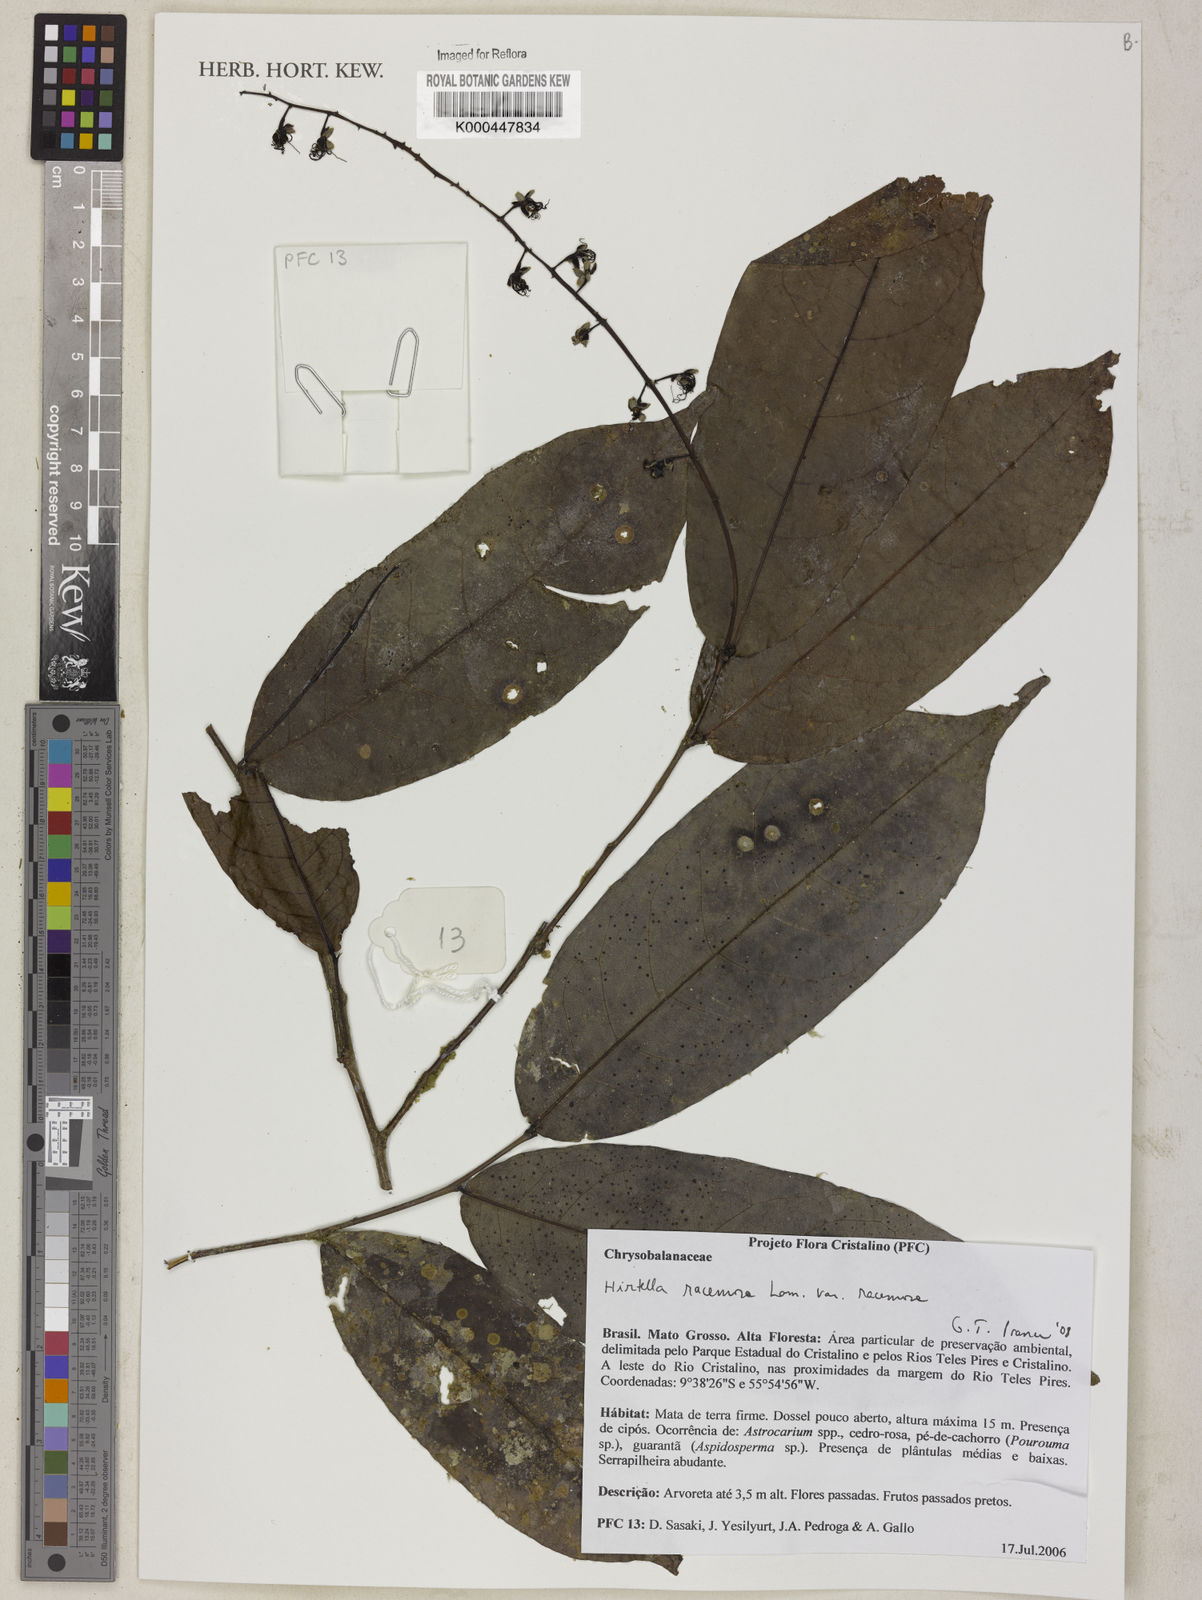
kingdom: Plantae
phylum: Tracheophyta
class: Magnoliopsida
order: Malpighiales
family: Chrysobalanaceae
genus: Hirtella
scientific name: Hirtella racemosa
